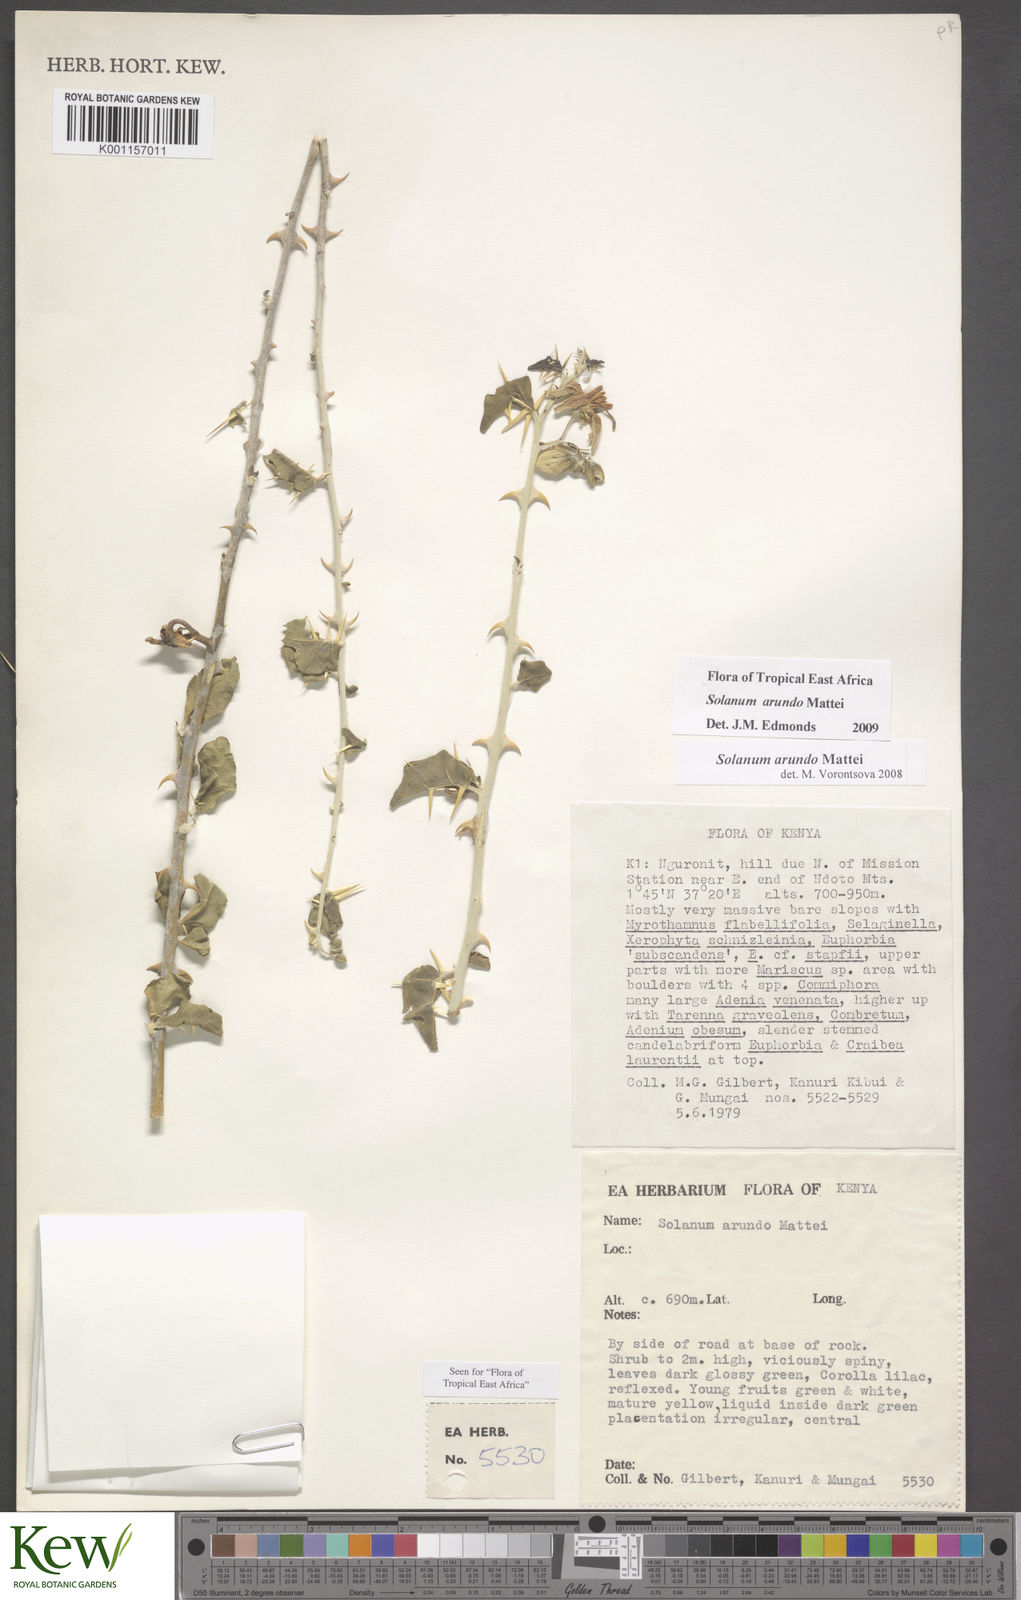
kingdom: Plantae
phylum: Tracheophyta
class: Magnoliopsida
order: Solanales
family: Solanaceae
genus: Solanum
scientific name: Solanum arundo
